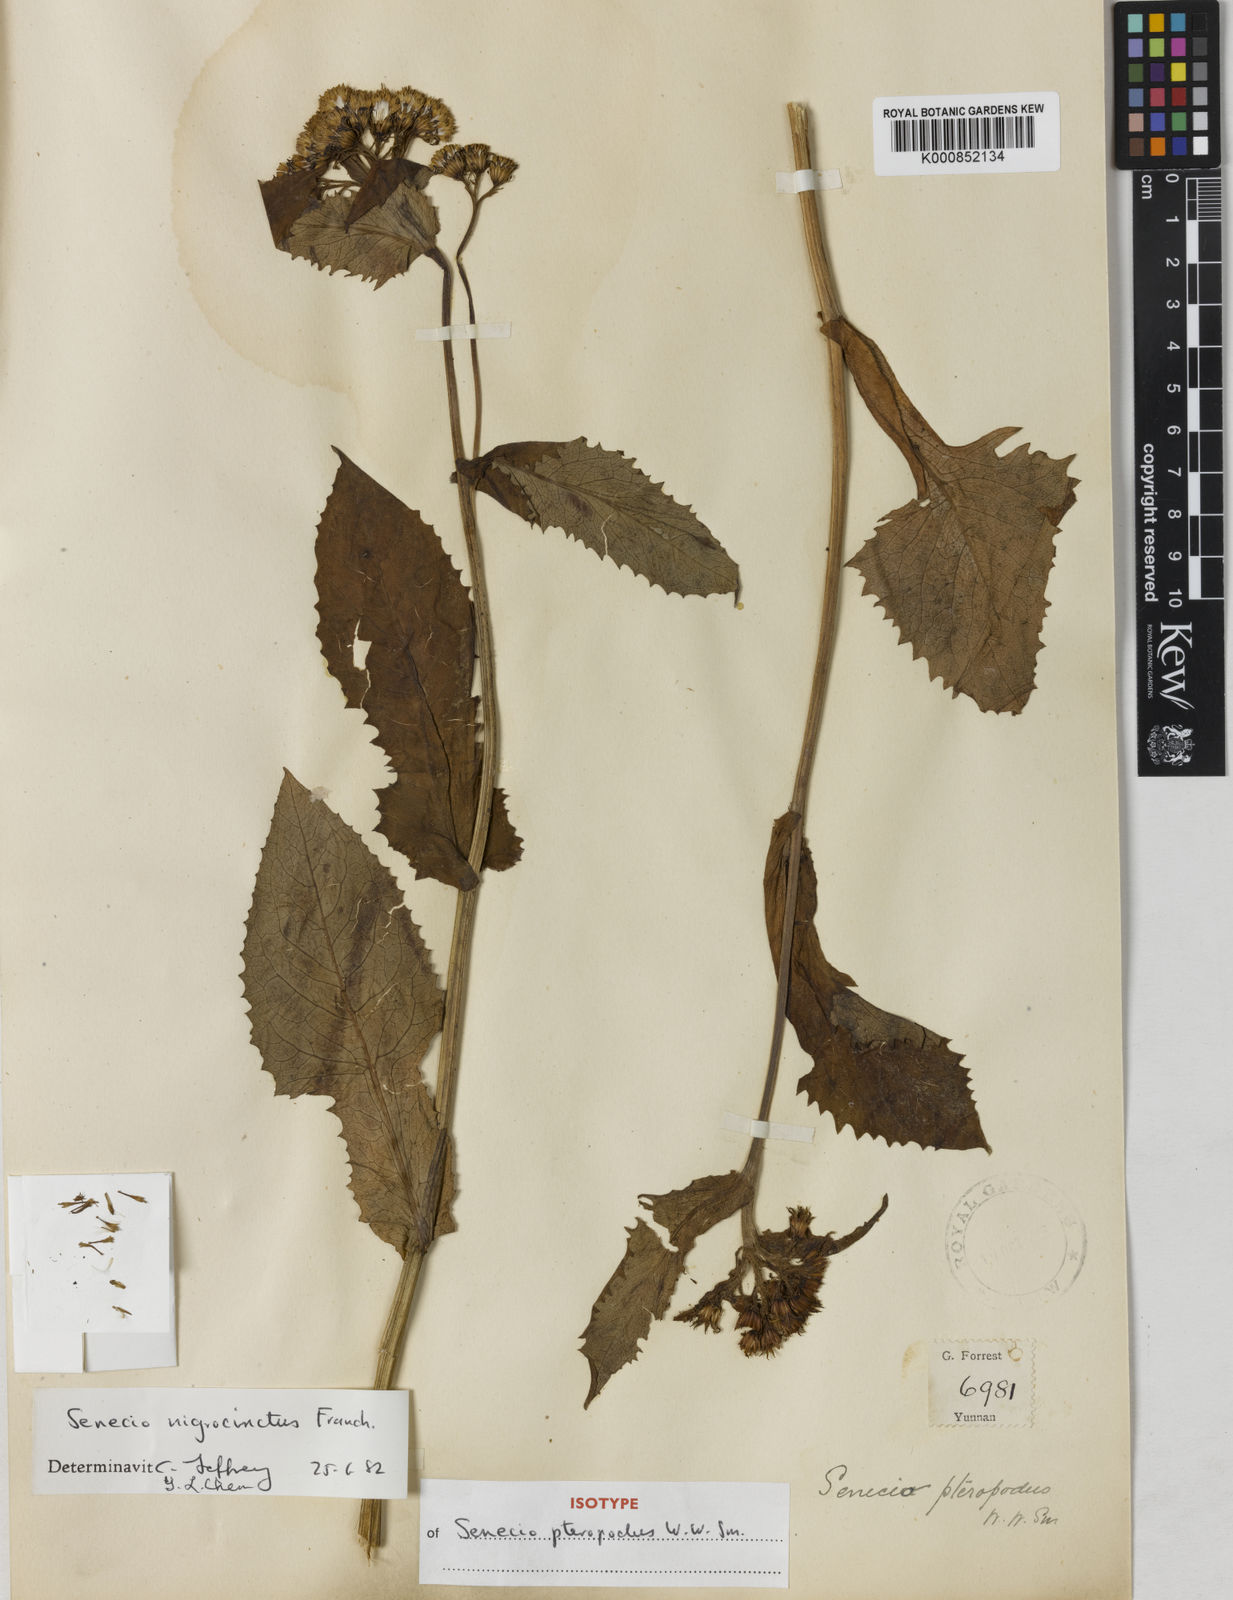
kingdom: Plantae
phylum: Tracheophyta
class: Magnoliopsida
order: Asterales
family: Asteraceae
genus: Senecio
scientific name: Senecio nigrocinctus
